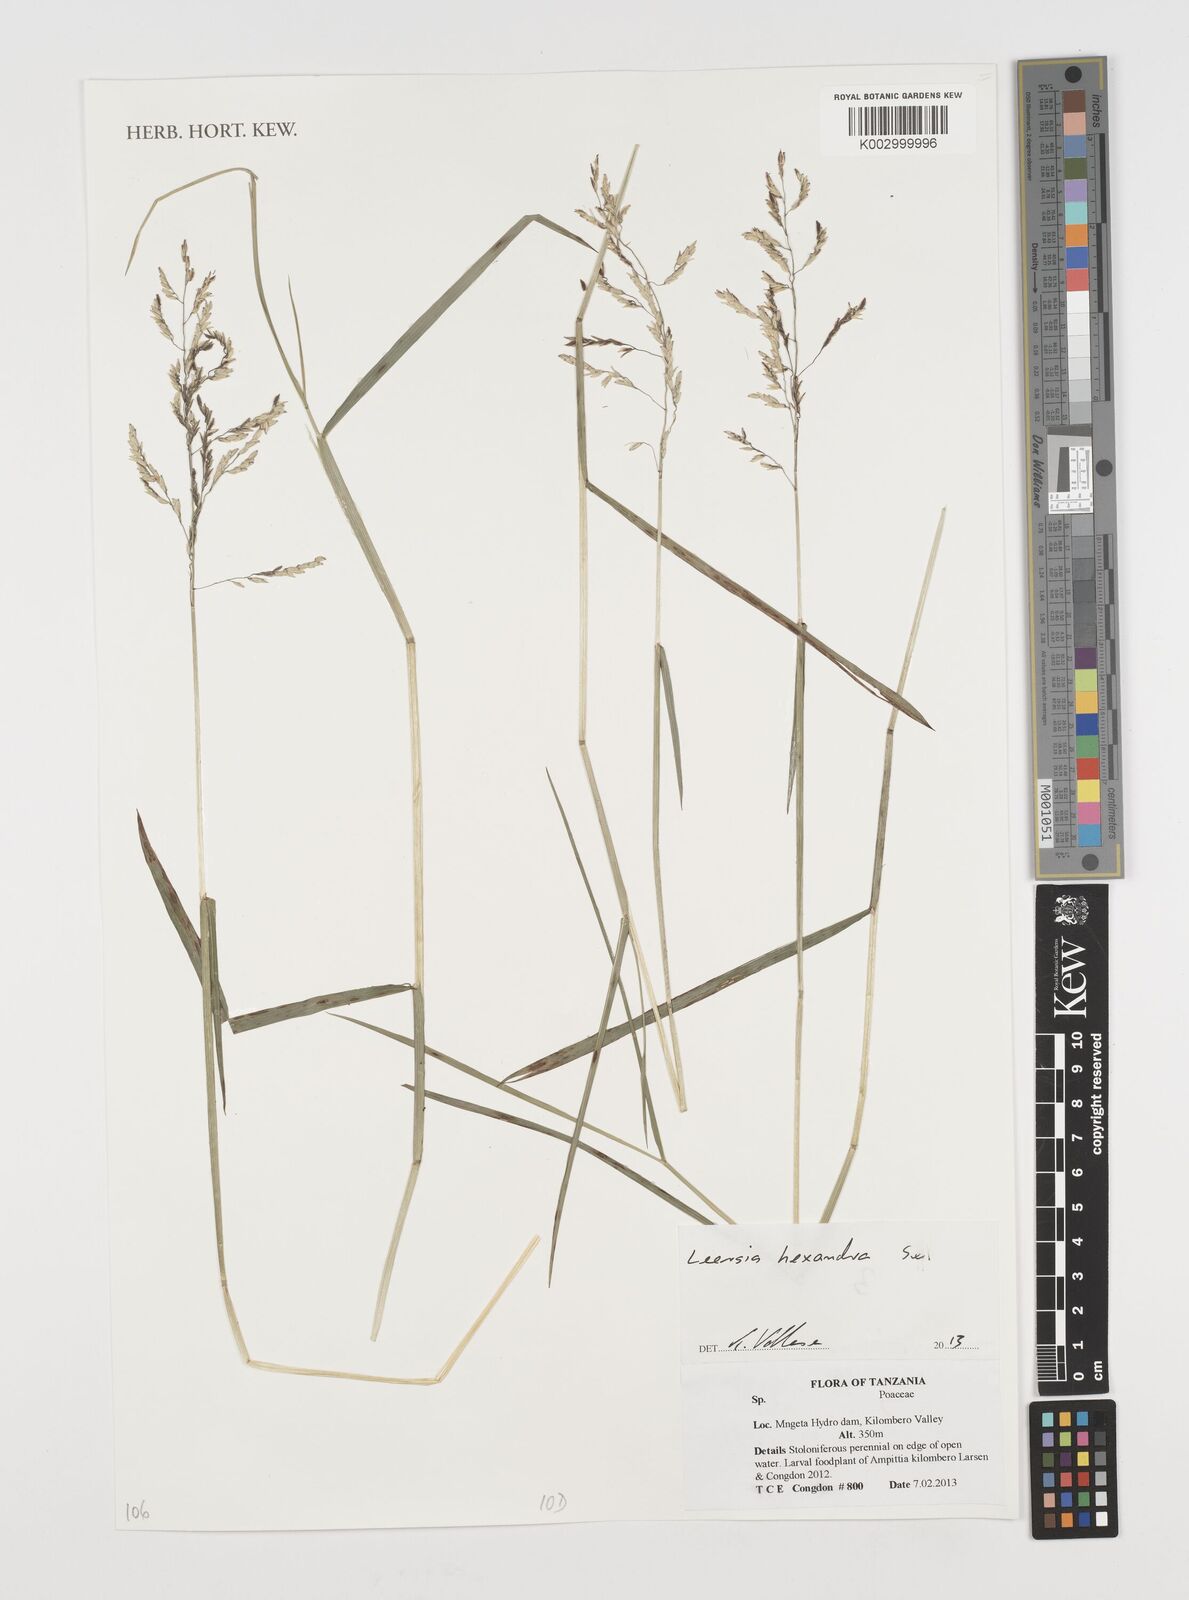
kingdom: Plantae
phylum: Tracheophyta
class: Liliopsida
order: Poales
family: Poaceae
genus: Leersia
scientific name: Leersia hexandra
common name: Southern cut grass
